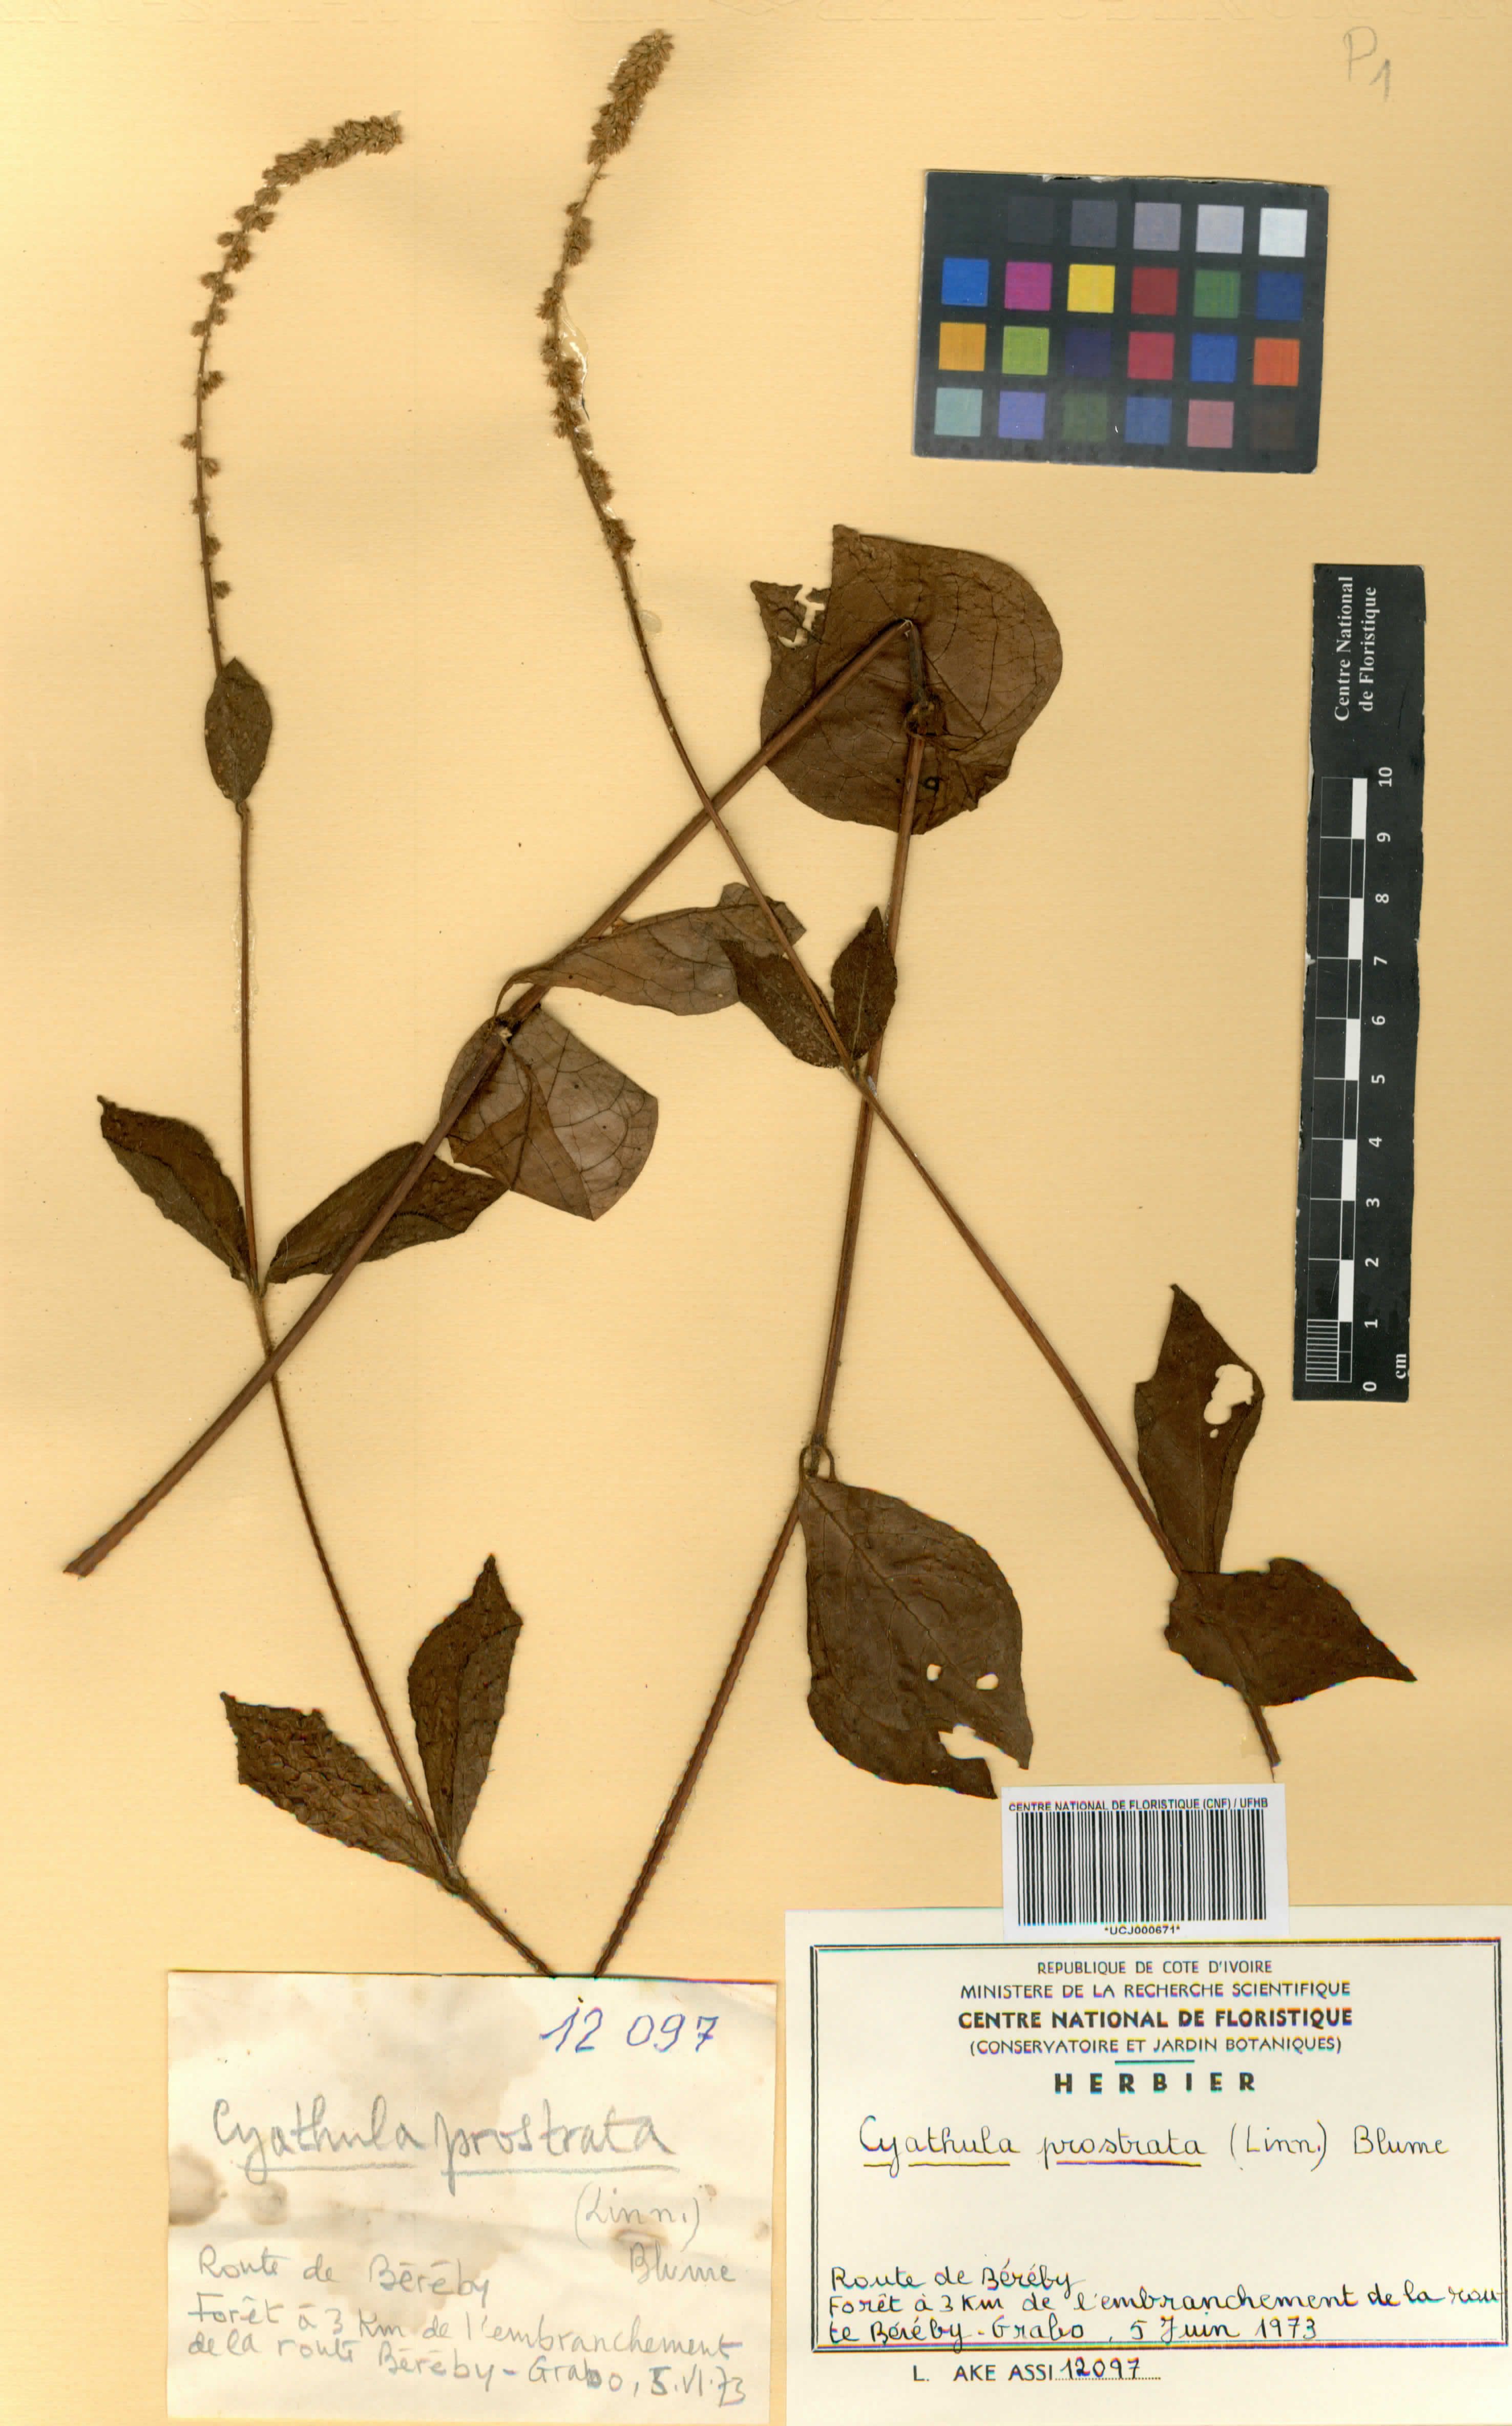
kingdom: Plantae
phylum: Tracheophyta
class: Magnoliopsida
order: Caryophyllales
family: Amaranthaceae
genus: Cyathula
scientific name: Cyathula prostrata
